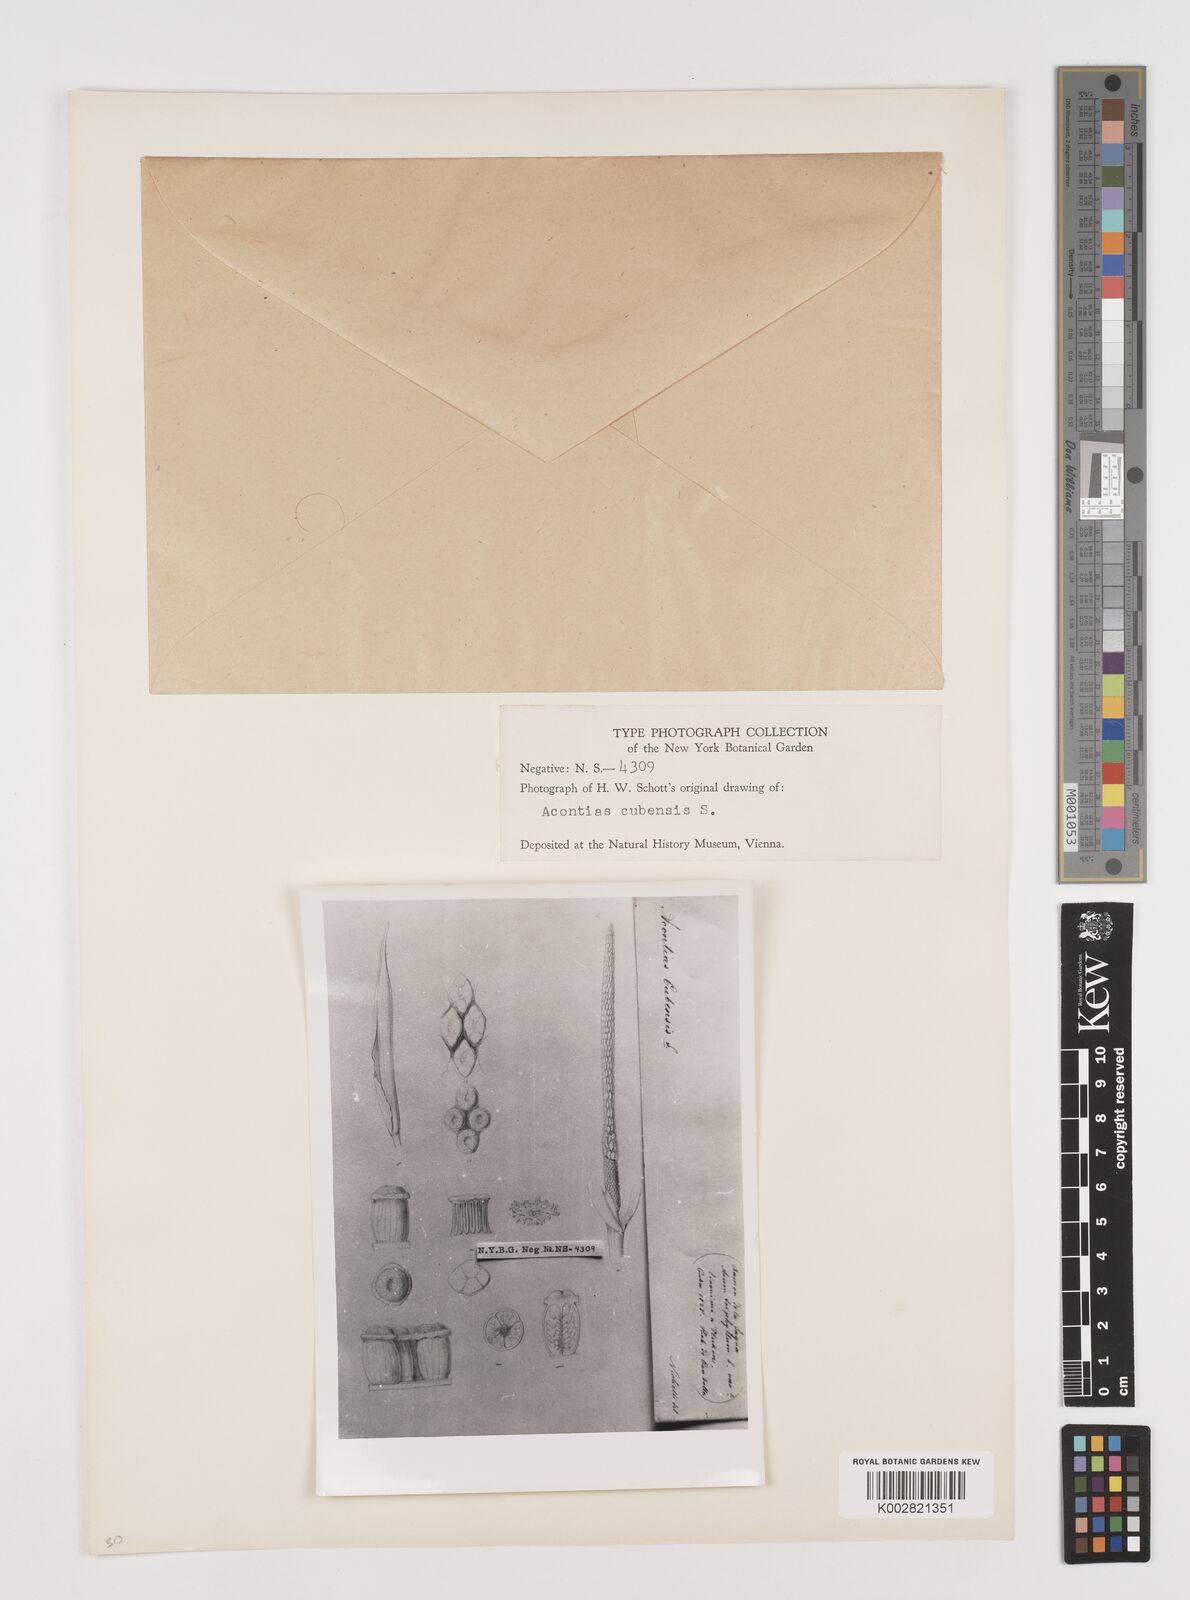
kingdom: Plantae
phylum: Tracheophyta
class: Liliopsida
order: Alismatales
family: Araceae
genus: Xanthosoma
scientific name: Xanthosoma cubense
